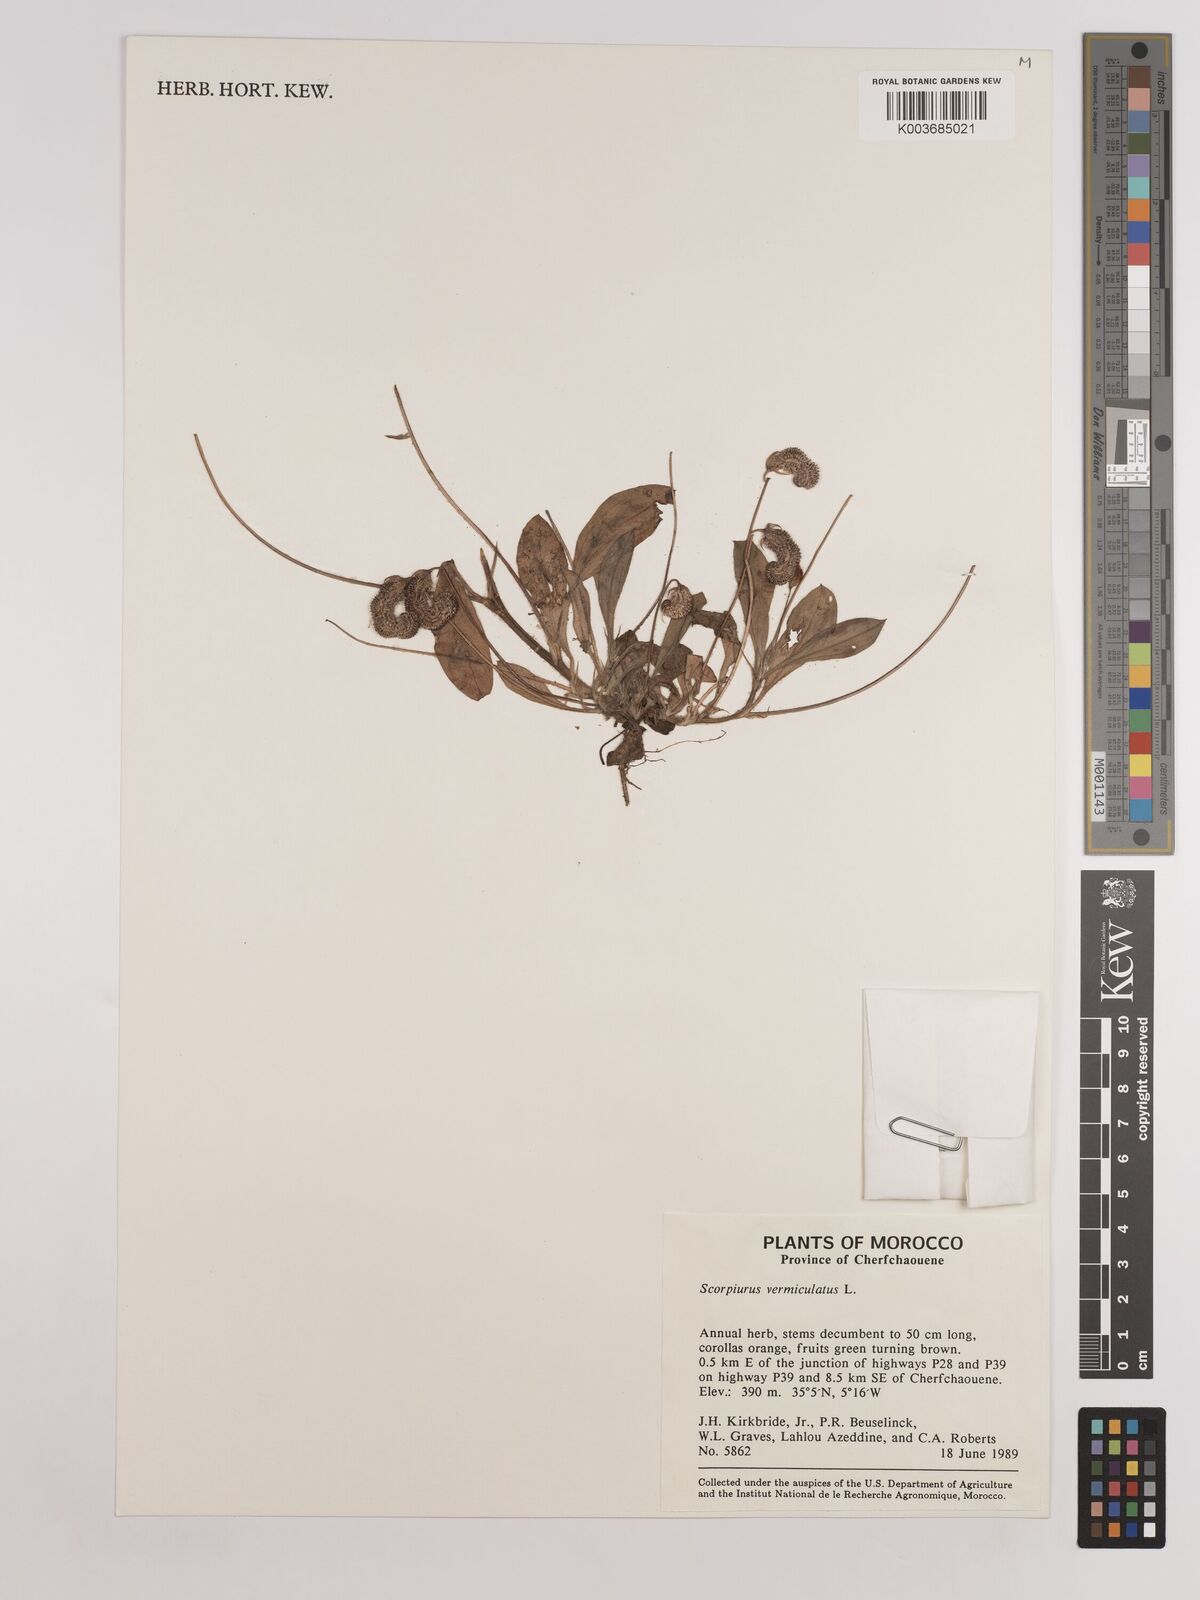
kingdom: Plantae
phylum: Tracheophyta
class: Magnoliopsida
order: Fabales
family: Fabaceae
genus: Scorpiurus
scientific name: Scorpiurus vermiculatus
